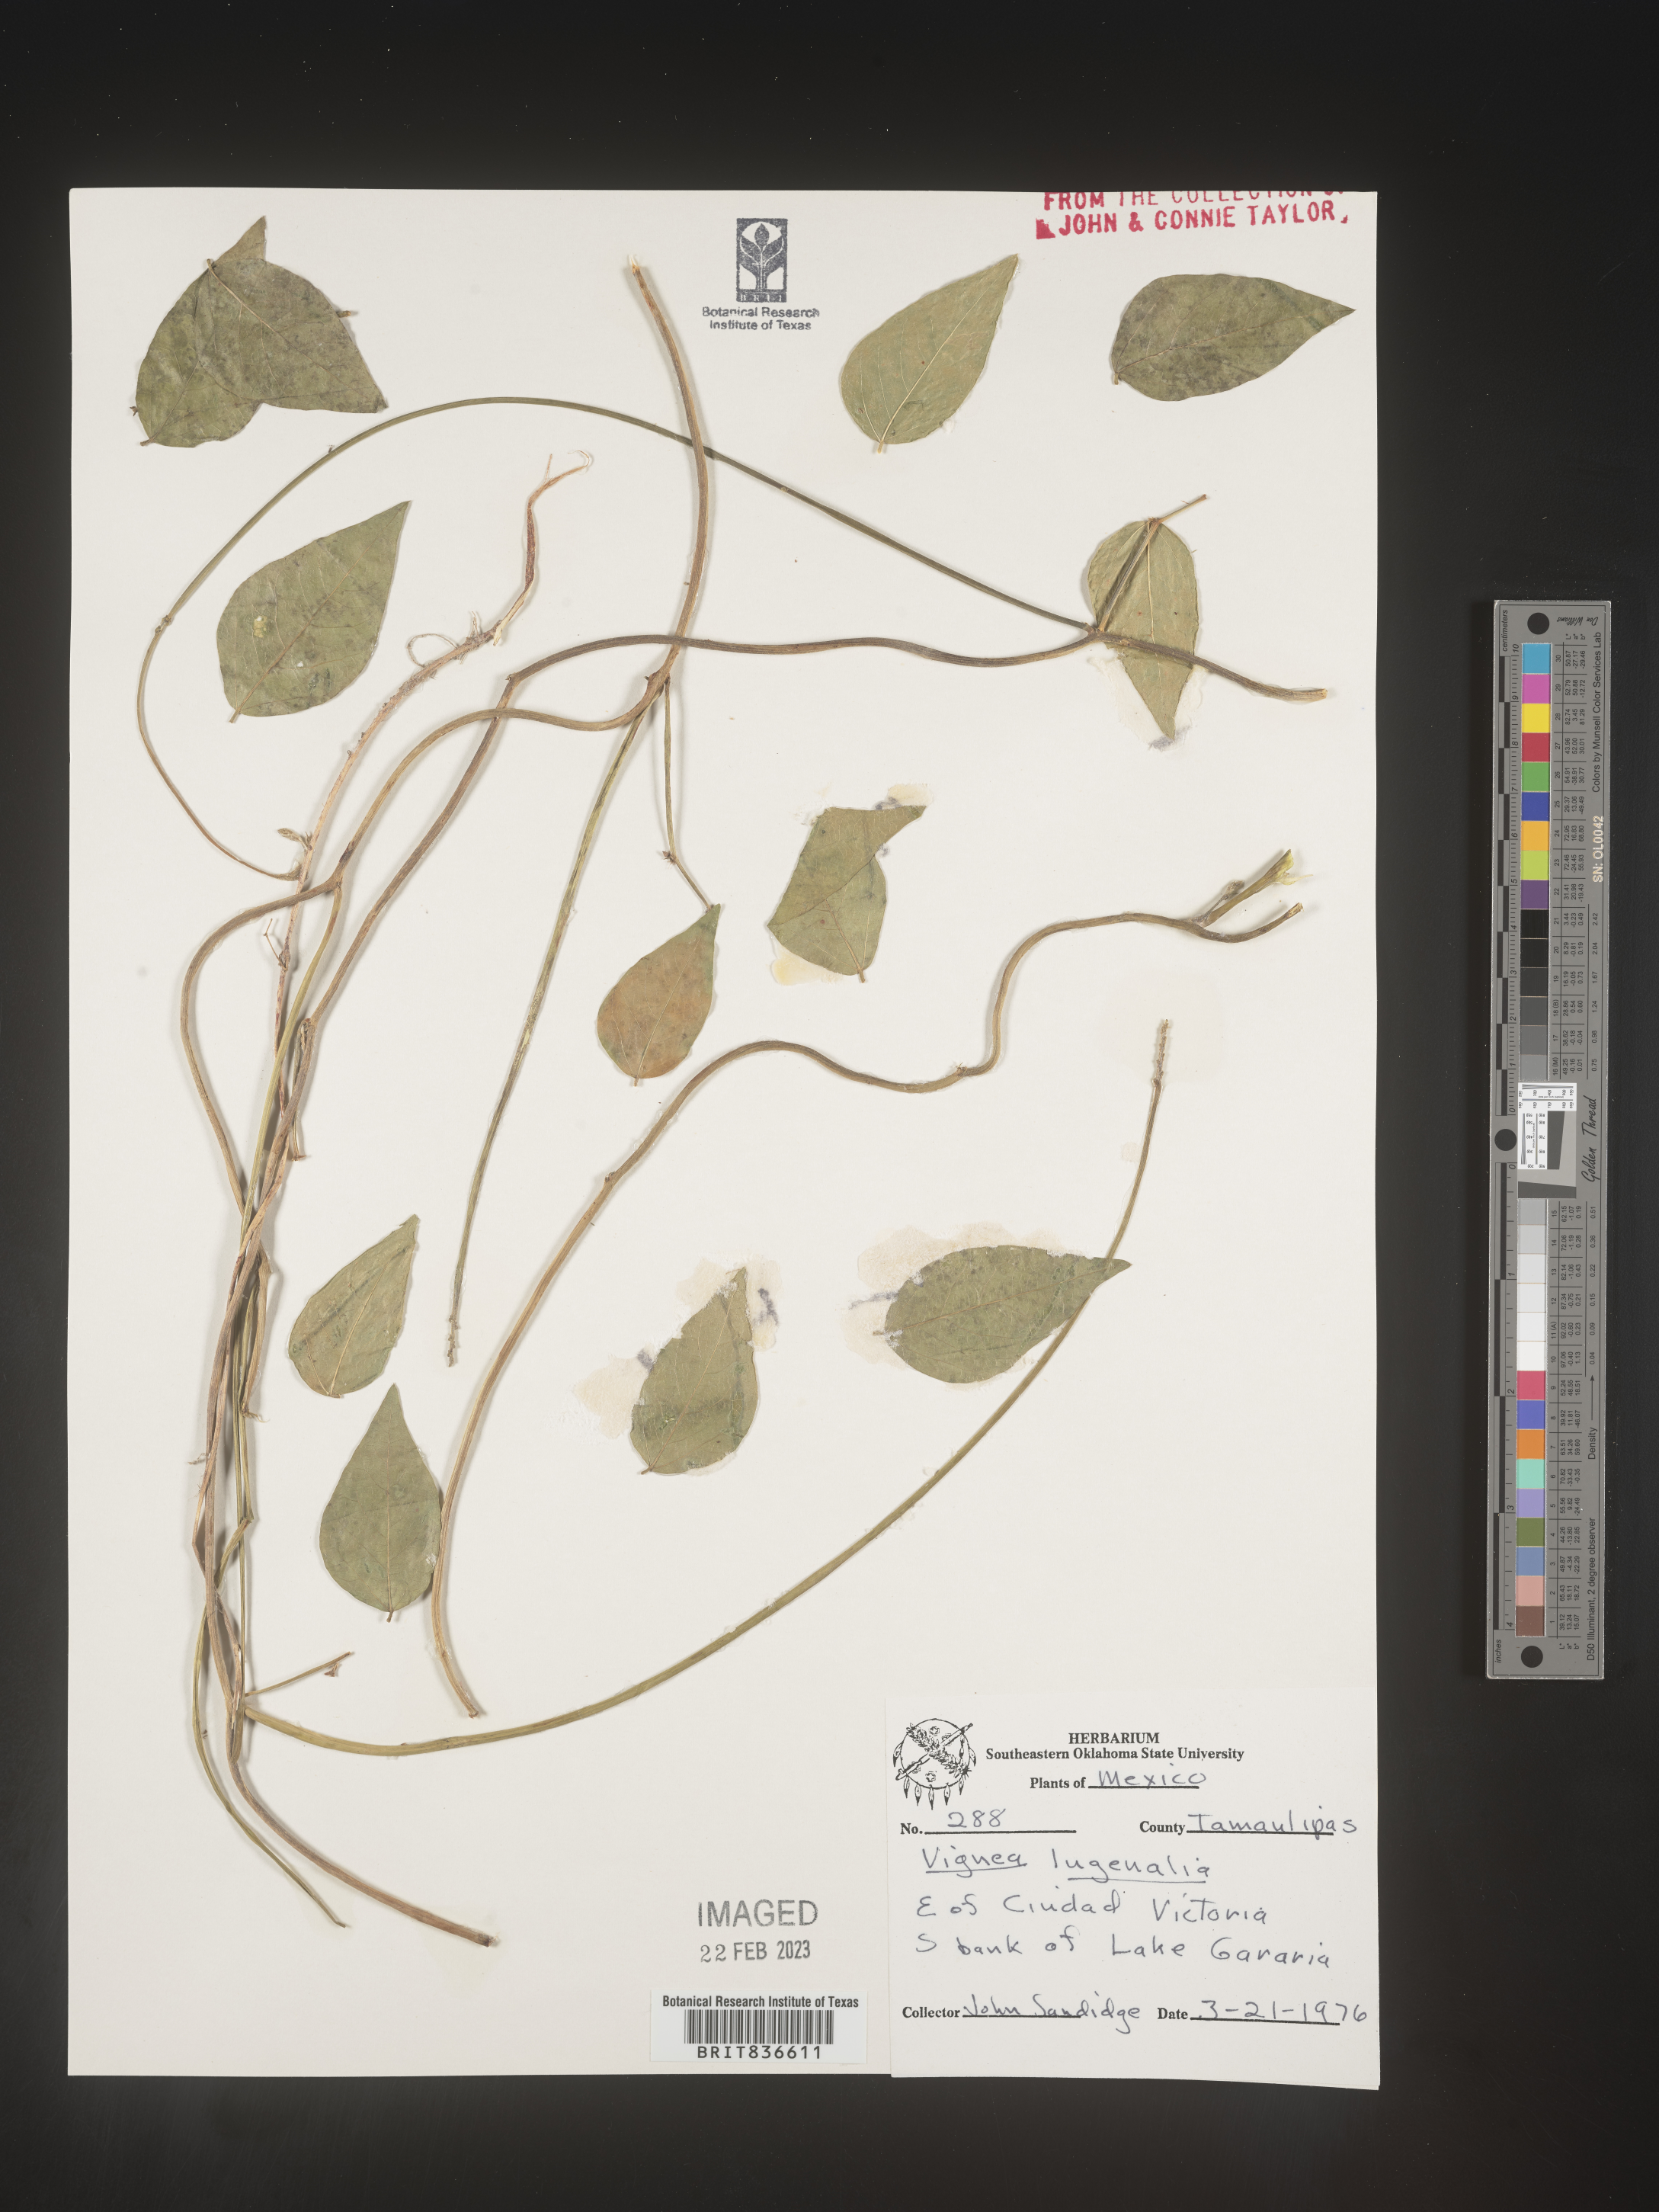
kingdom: Plantae
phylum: Tracheophyta
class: Magnoliopsida
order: Fabales
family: Fabaceae
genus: Vigna
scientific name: Vigna
